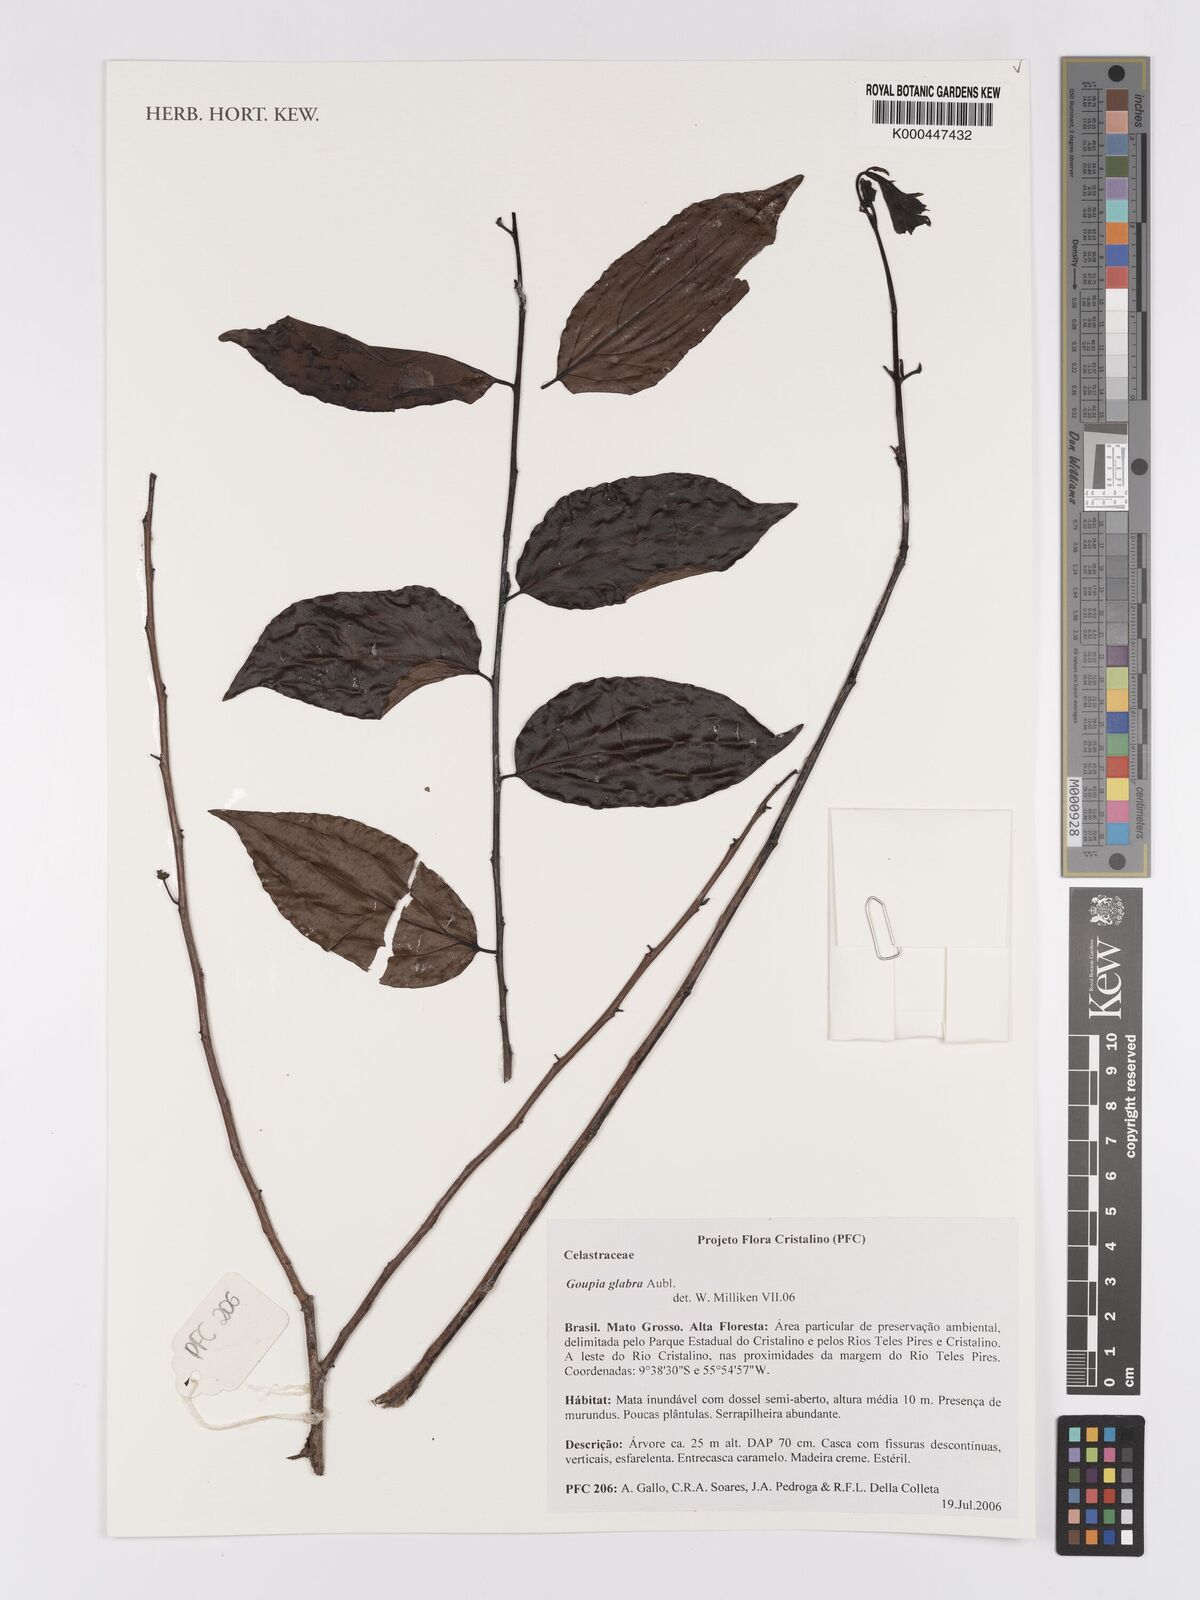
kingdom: Plantae
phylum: Tracheophyta
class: Magnoliopsida
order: Malpighiales
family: Goupiaceae
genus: Goupia
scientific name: Goupia glabra
